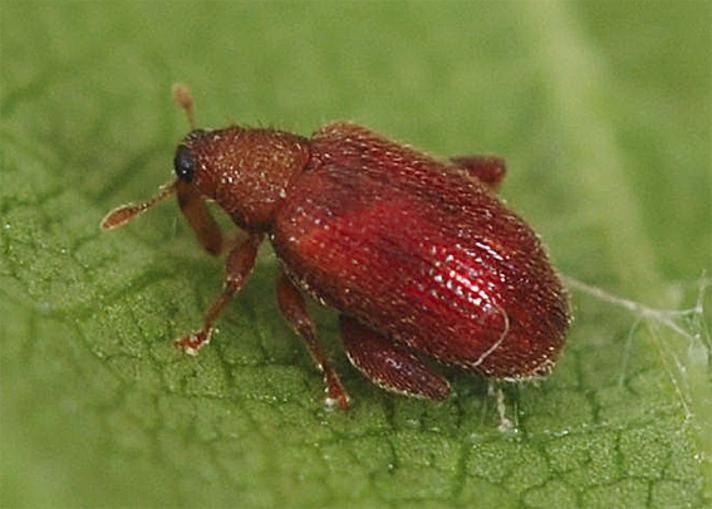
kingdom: Animalia
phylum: Arthropoda
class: Insecta
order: Coleoptera
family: Curculionidae
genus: Orchestes
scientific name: Orchestes betuleti
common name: Elmeloppe
